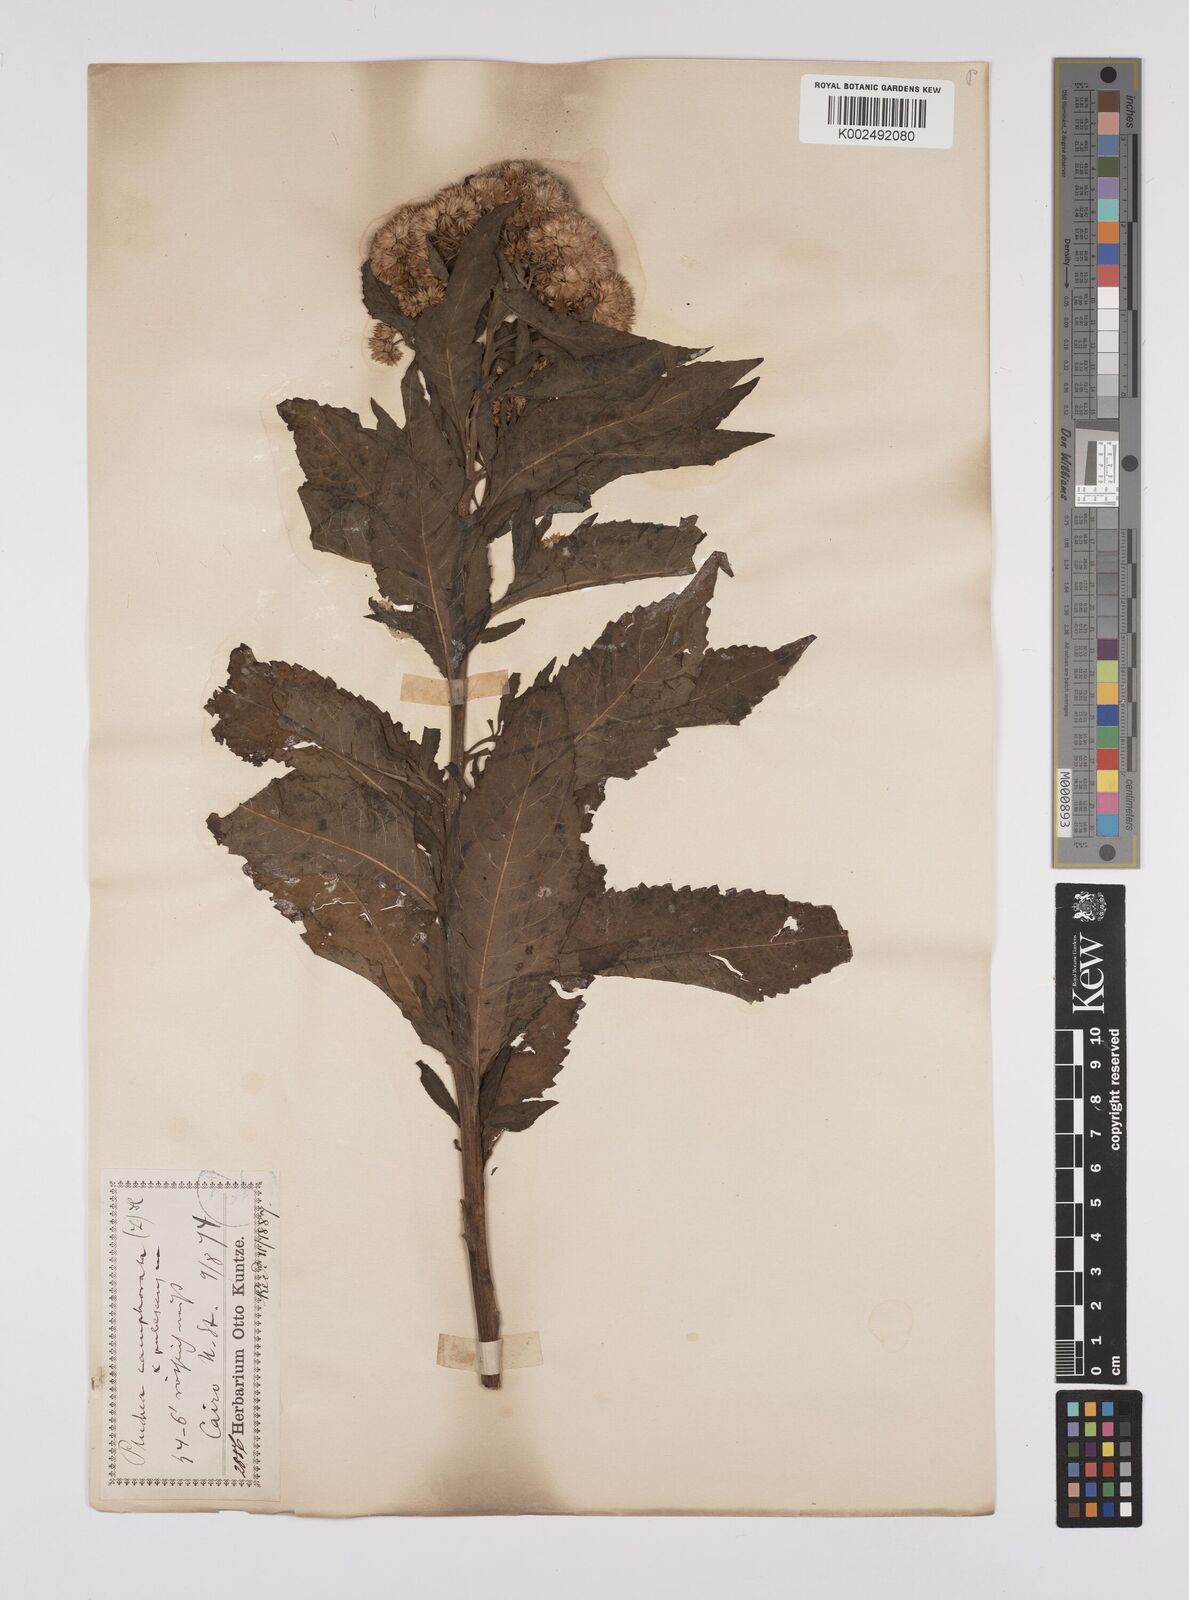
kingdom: Plantae
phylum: Tracheophyta
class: Magnoliopsida
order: Asterales
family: Asteraceae
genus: Pluchea
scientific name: Pluchea camphorata
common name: Camphor pluchea
